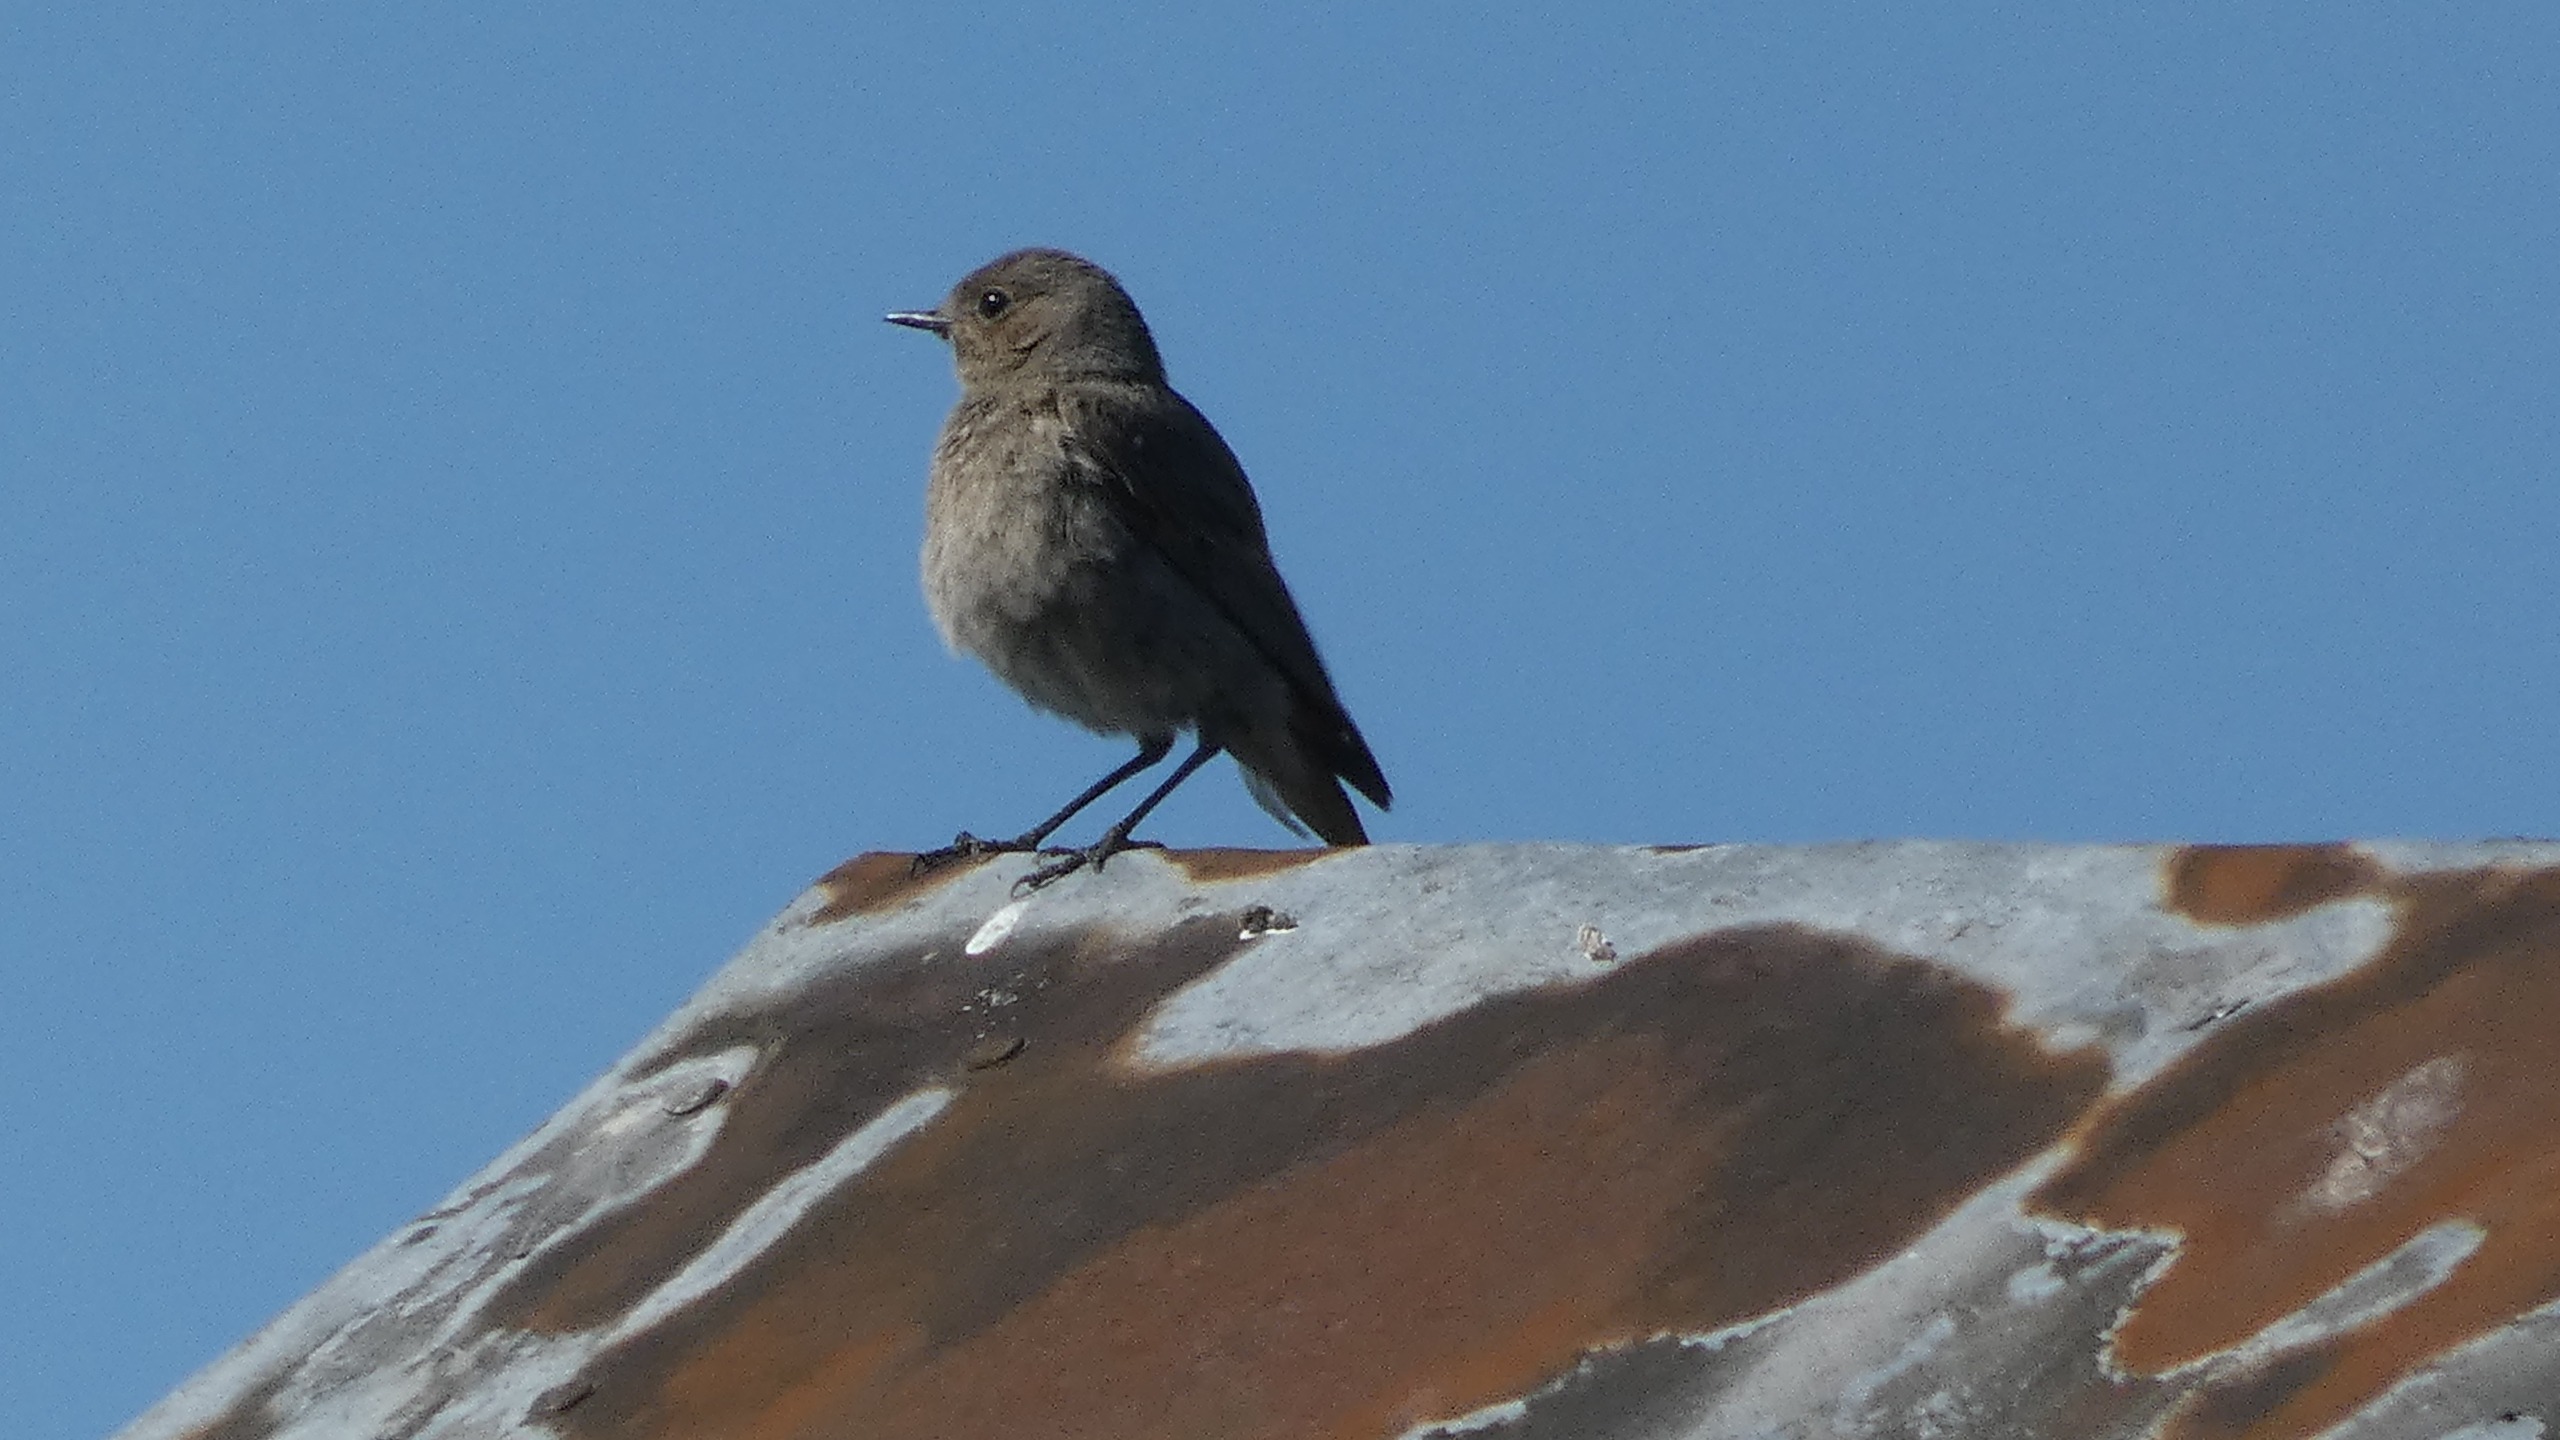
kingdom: Animalia
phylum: Chordata
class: Aves
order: Passeriformes
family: Muscicapidae
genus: Phoenicurus
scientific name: Phoenicurus ochruros
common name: Husrødstjert
